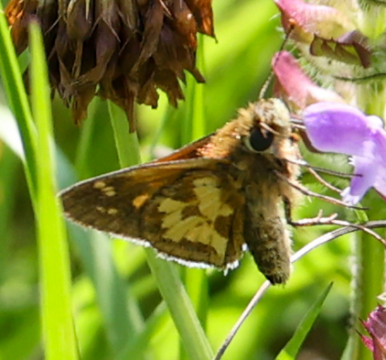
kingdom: Animalia
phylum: Arthropoda
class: Insecta
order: Lepidoptera
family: Hesperiidae
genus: Polites
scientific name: Polites coras
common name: Peck's Skipper
